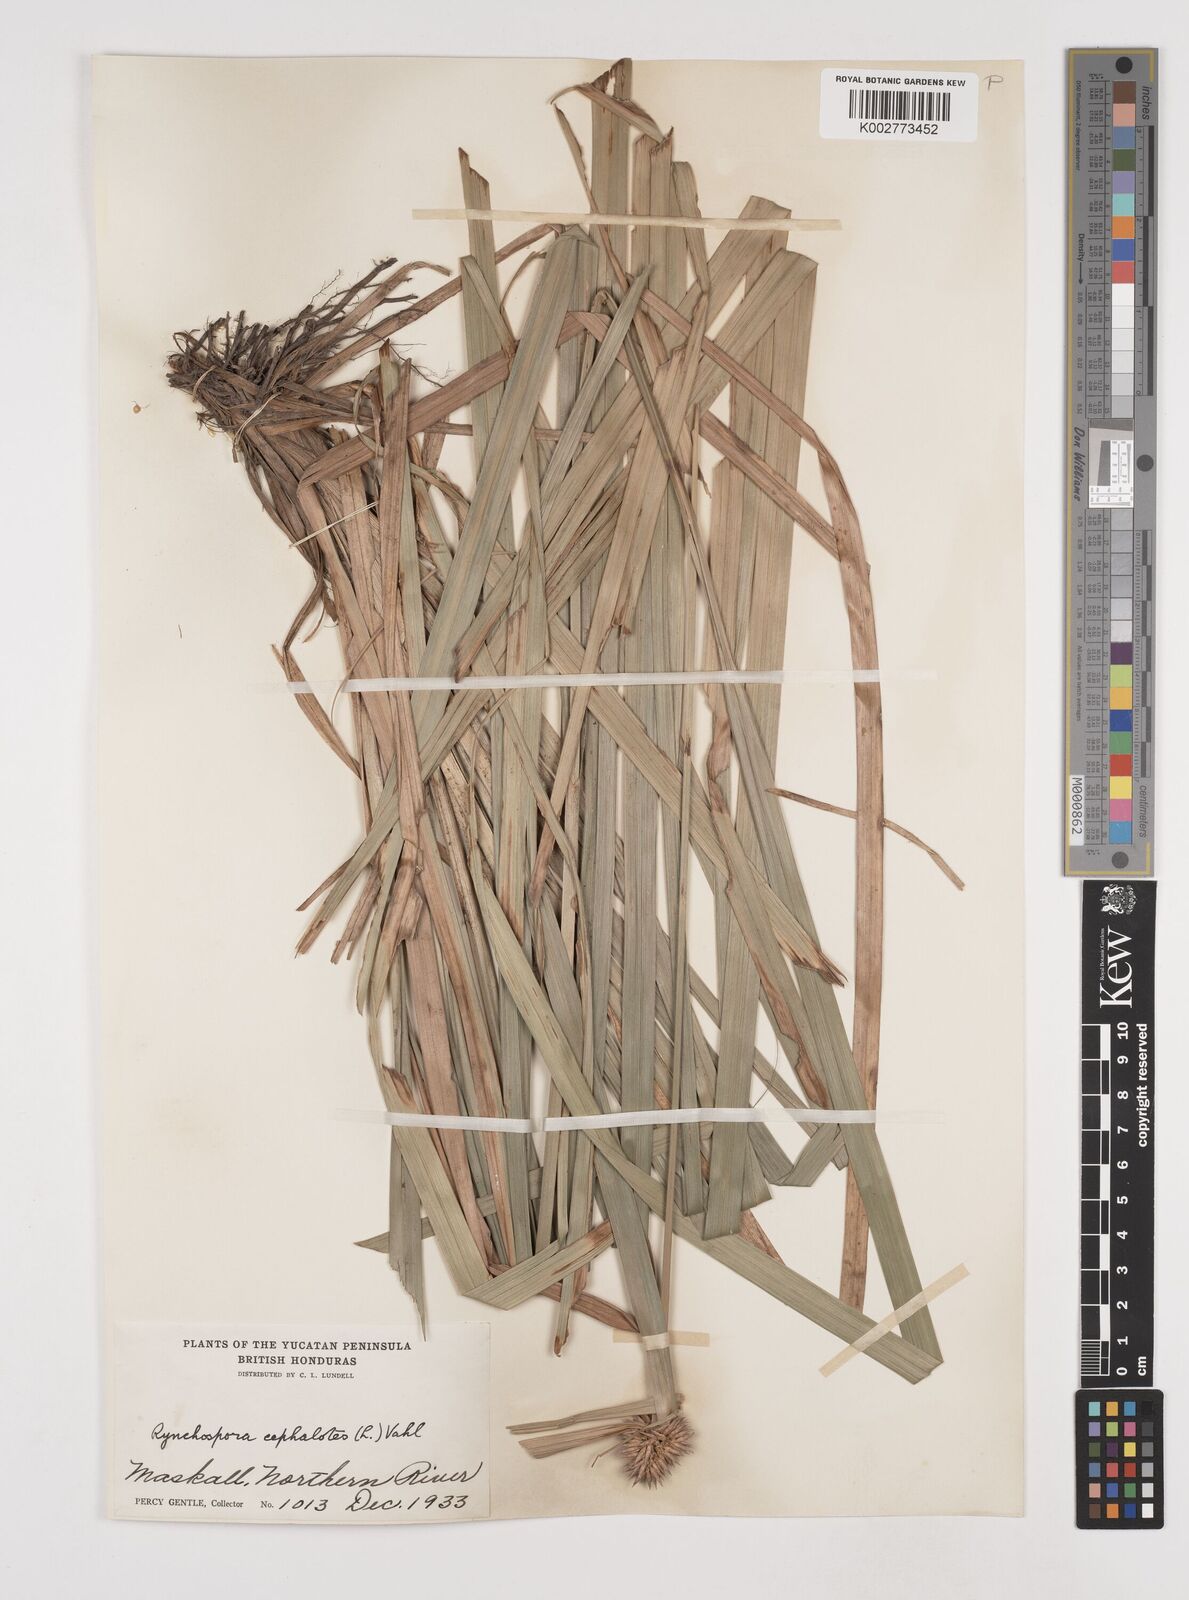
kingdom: Plantae
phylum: Tracheophyta
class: Liliopsida
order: Poales
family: Cyperaceae
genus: Rhynchospora
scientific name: Rhynchospora cephalotes
